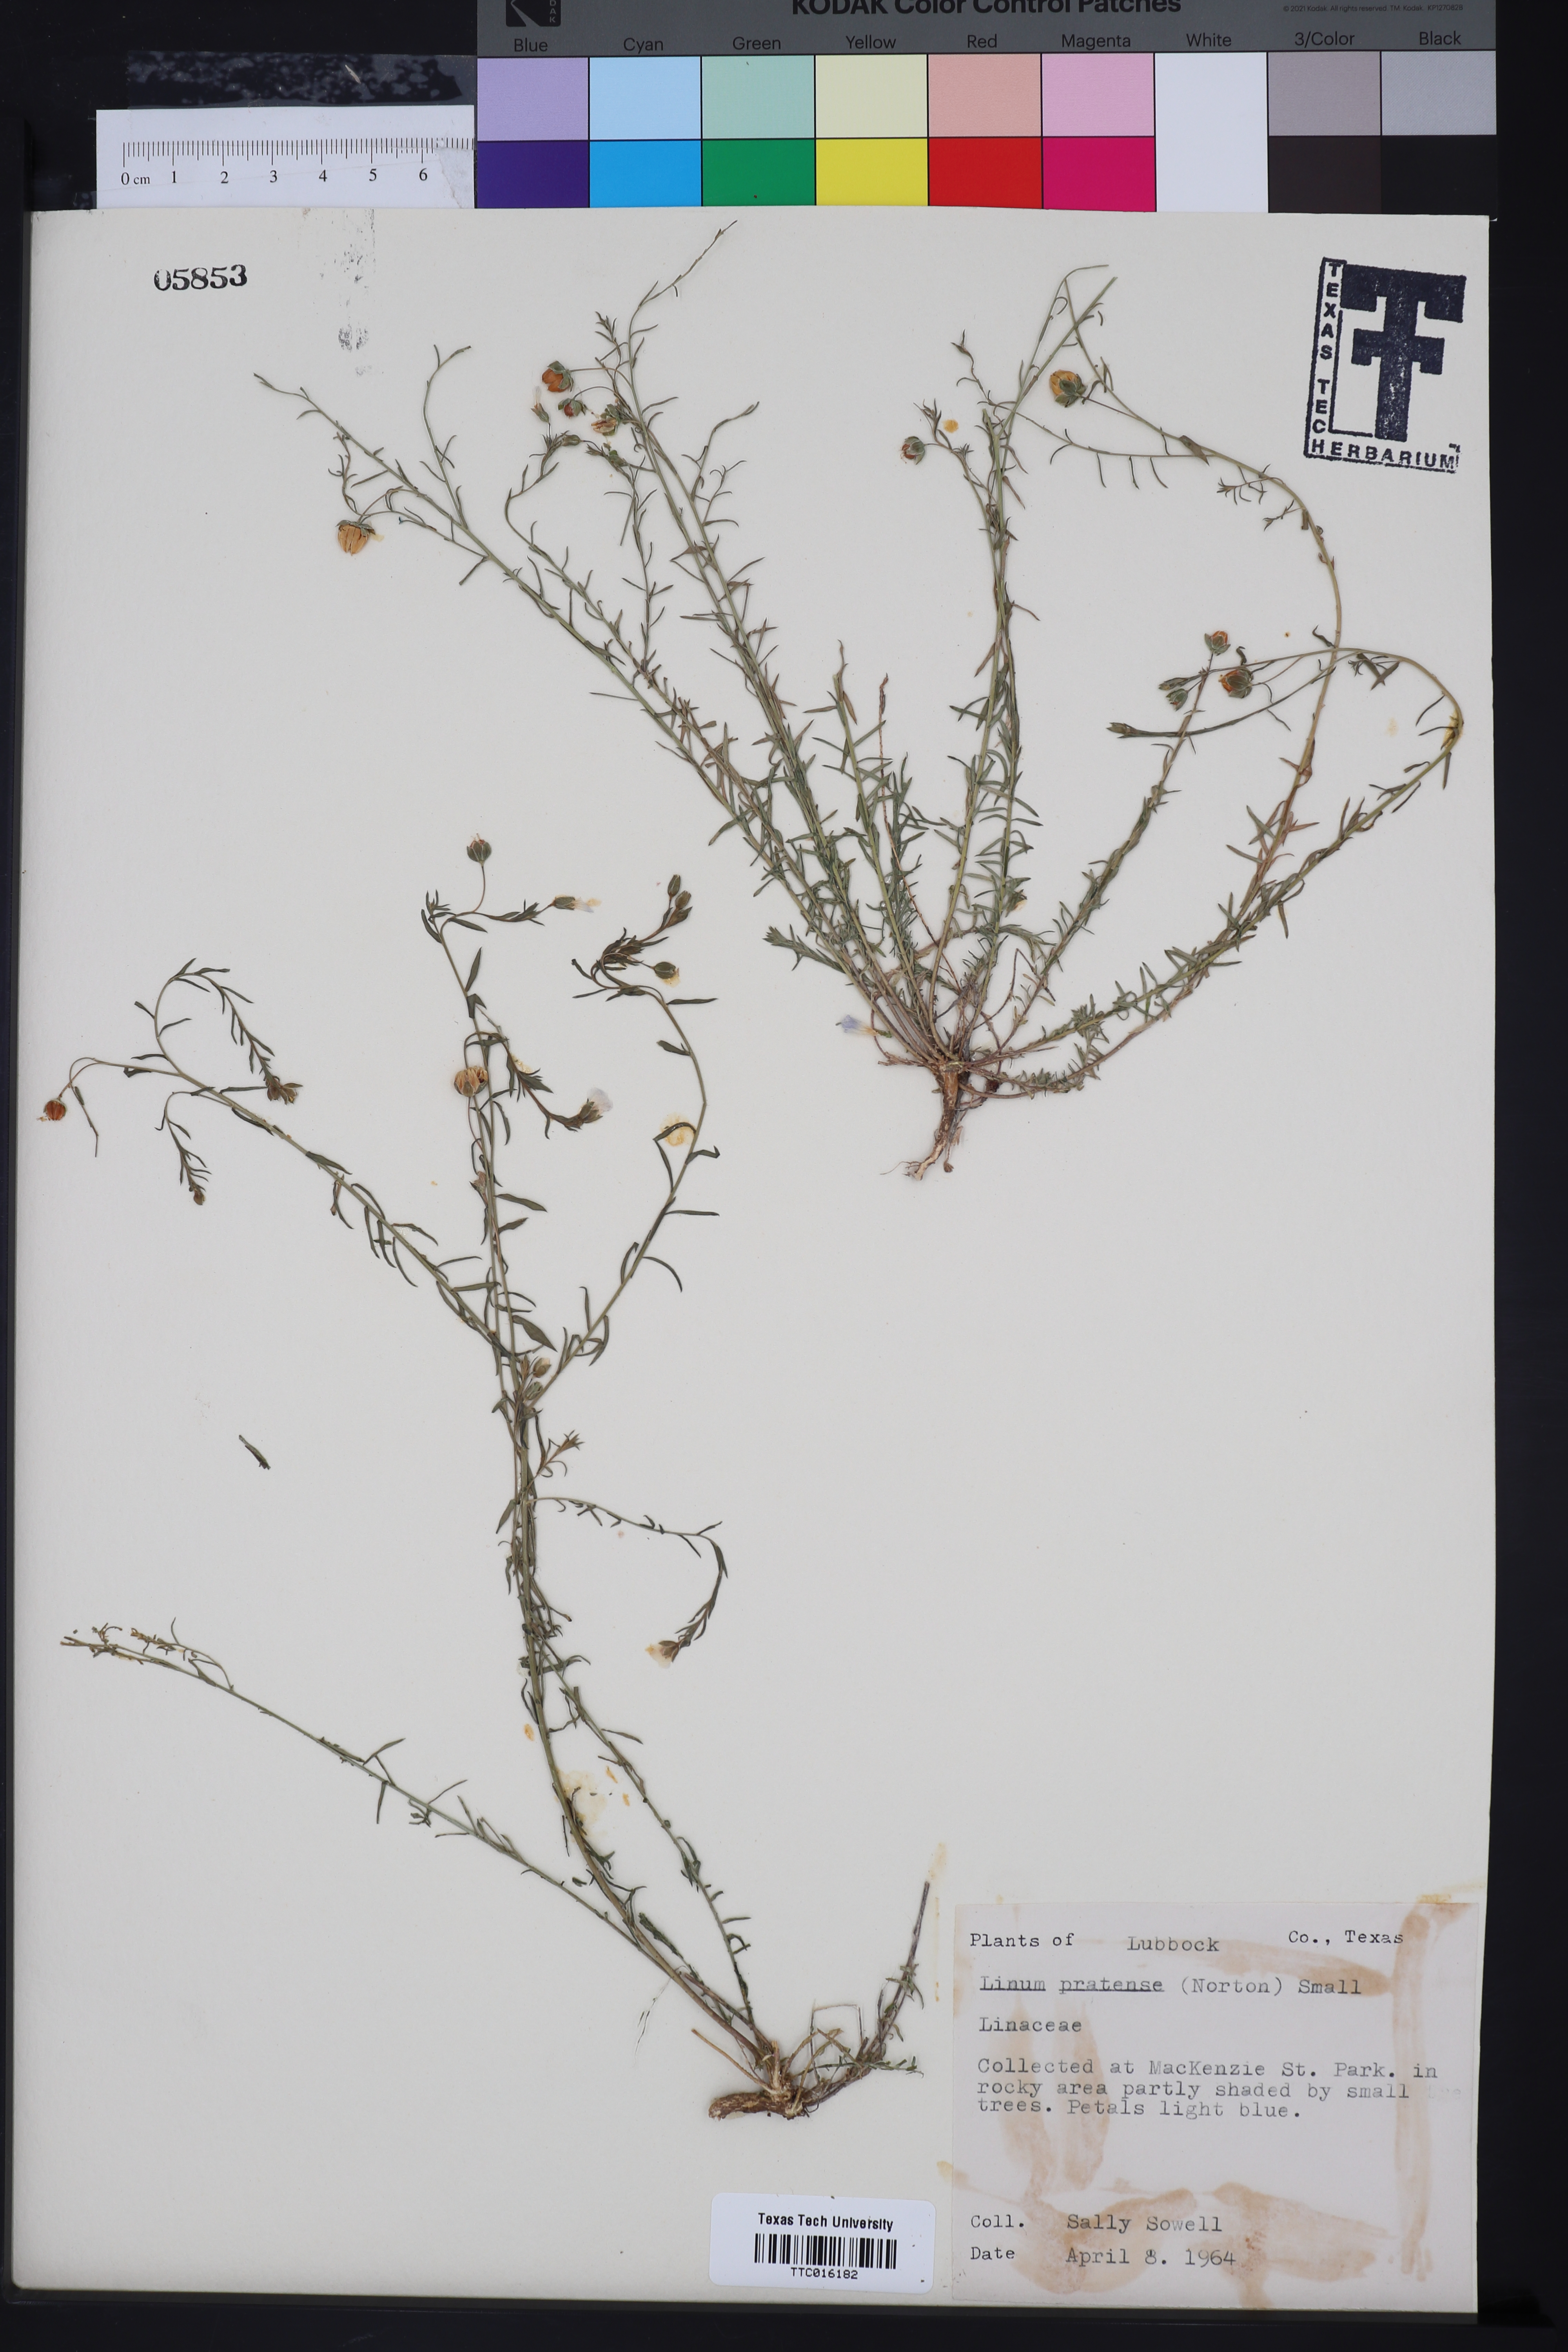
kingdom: Plantae
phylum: Tracheophyta
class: Magnoliopsida
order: Malpighiales
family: Linaceae
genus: Linum
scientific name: Linum pratense
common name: Norton's flax
